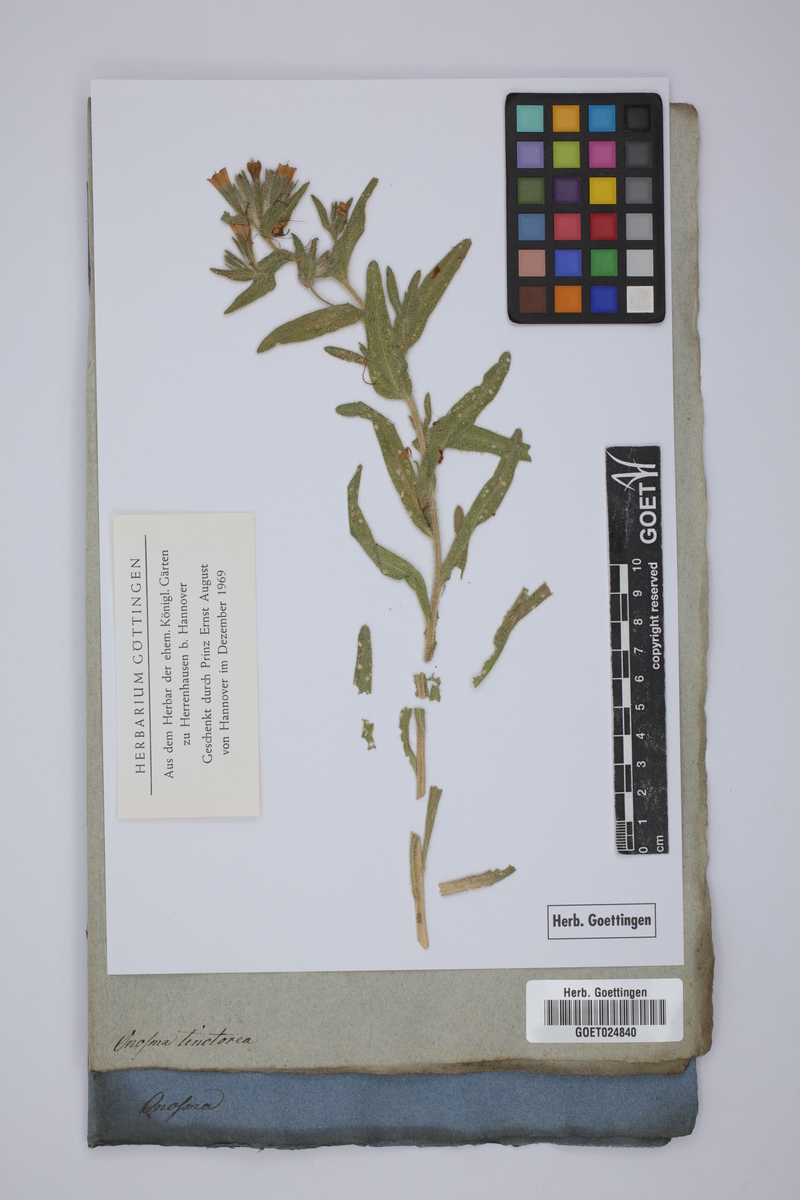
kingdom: Plantae
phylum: Tracheophyta
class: Magnoliopsida
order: Boraginales
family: Boraginaceae
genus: Onosma
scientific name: Onosma tinctoria
